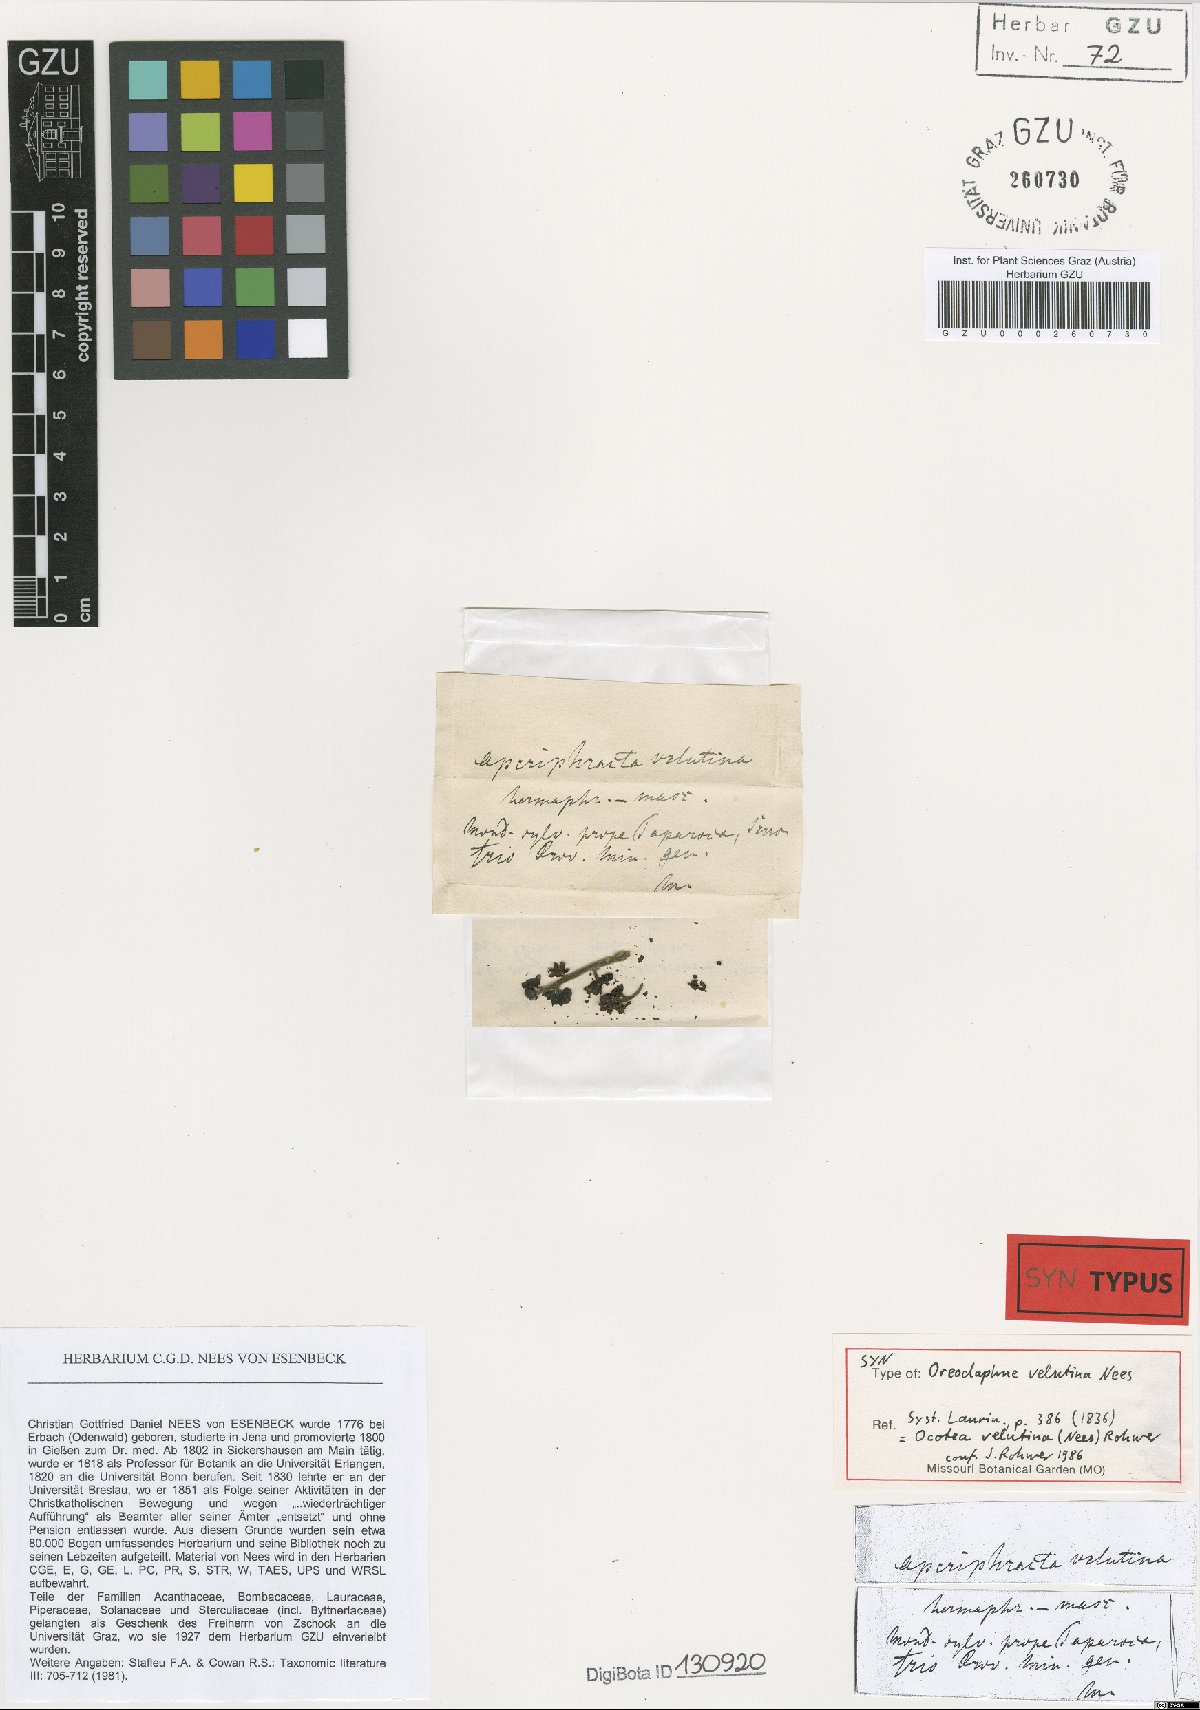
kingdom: Plantae
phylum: Tracheophyta
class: Magnoliopsida
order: Laurales
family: Lauraceae
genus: Andea
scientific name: Andea velutina
